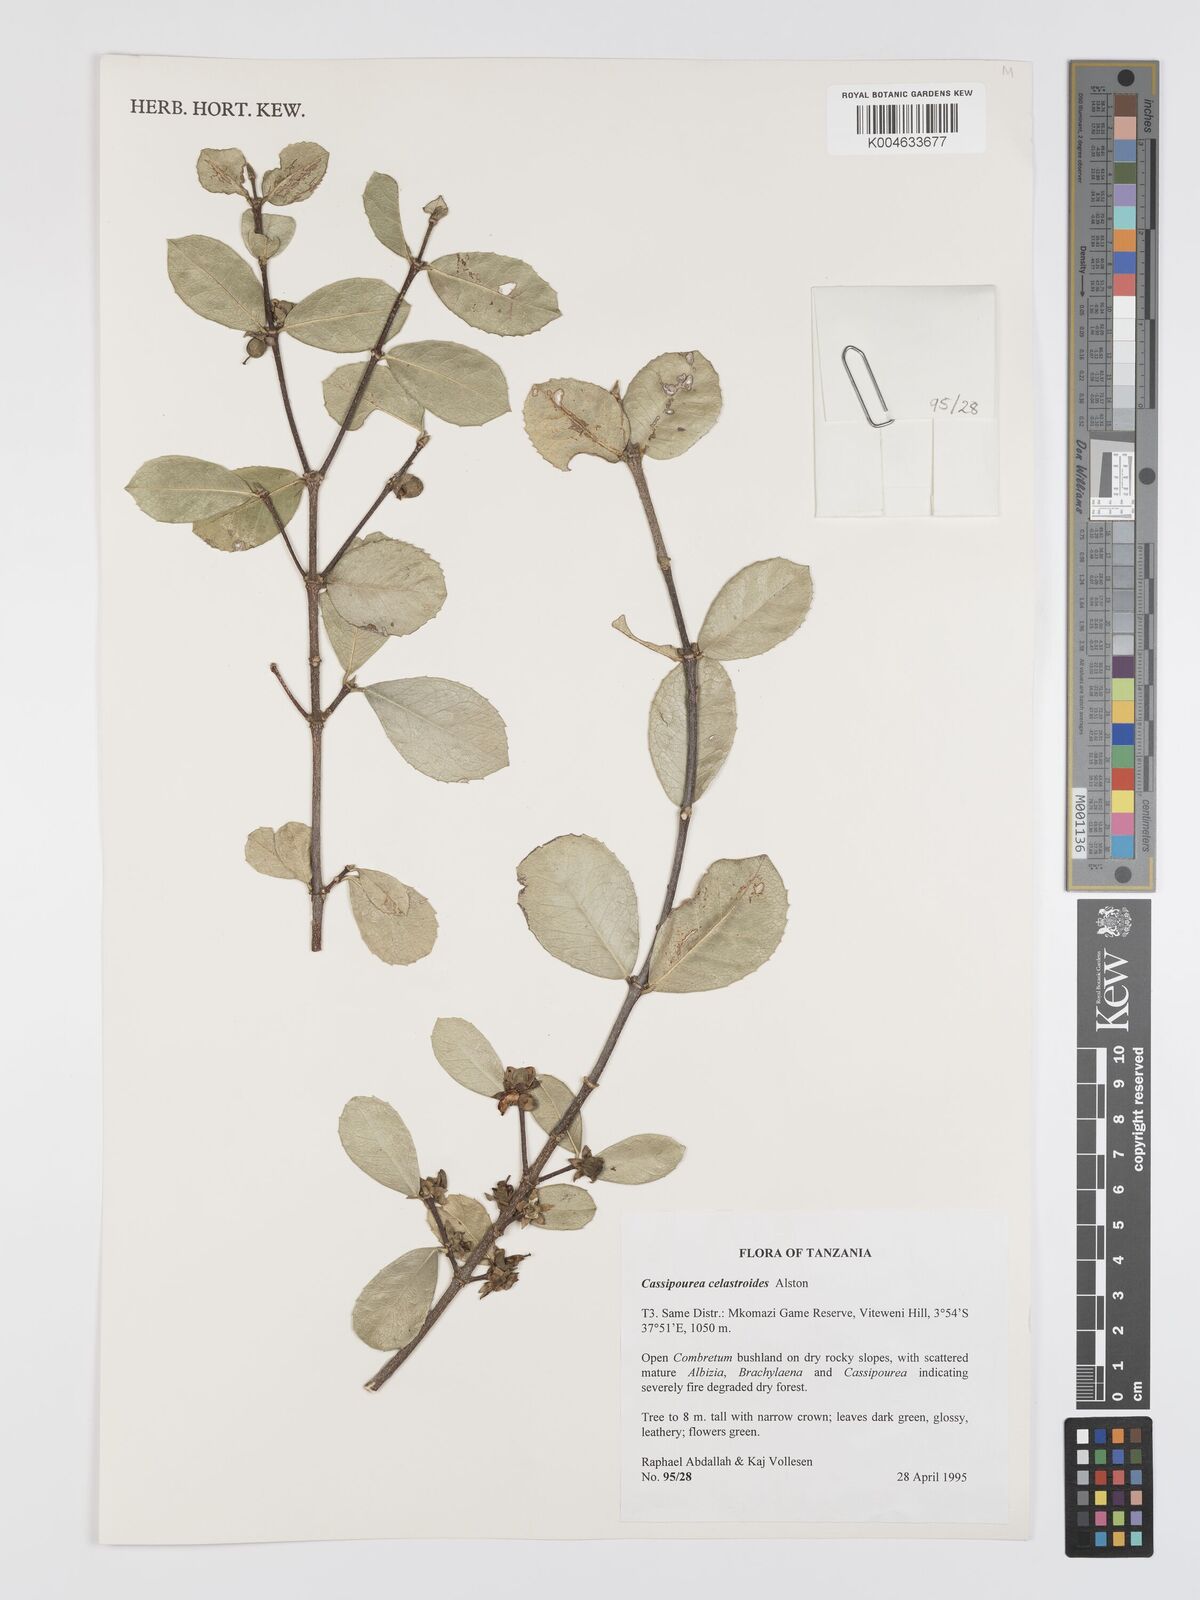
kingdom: Plantae
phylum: Tracheophyta
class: Magnoliopsida
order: Malpighiales
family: Rhizophoraceae
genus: Cassipourea
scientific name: Cassipourea celastroides
